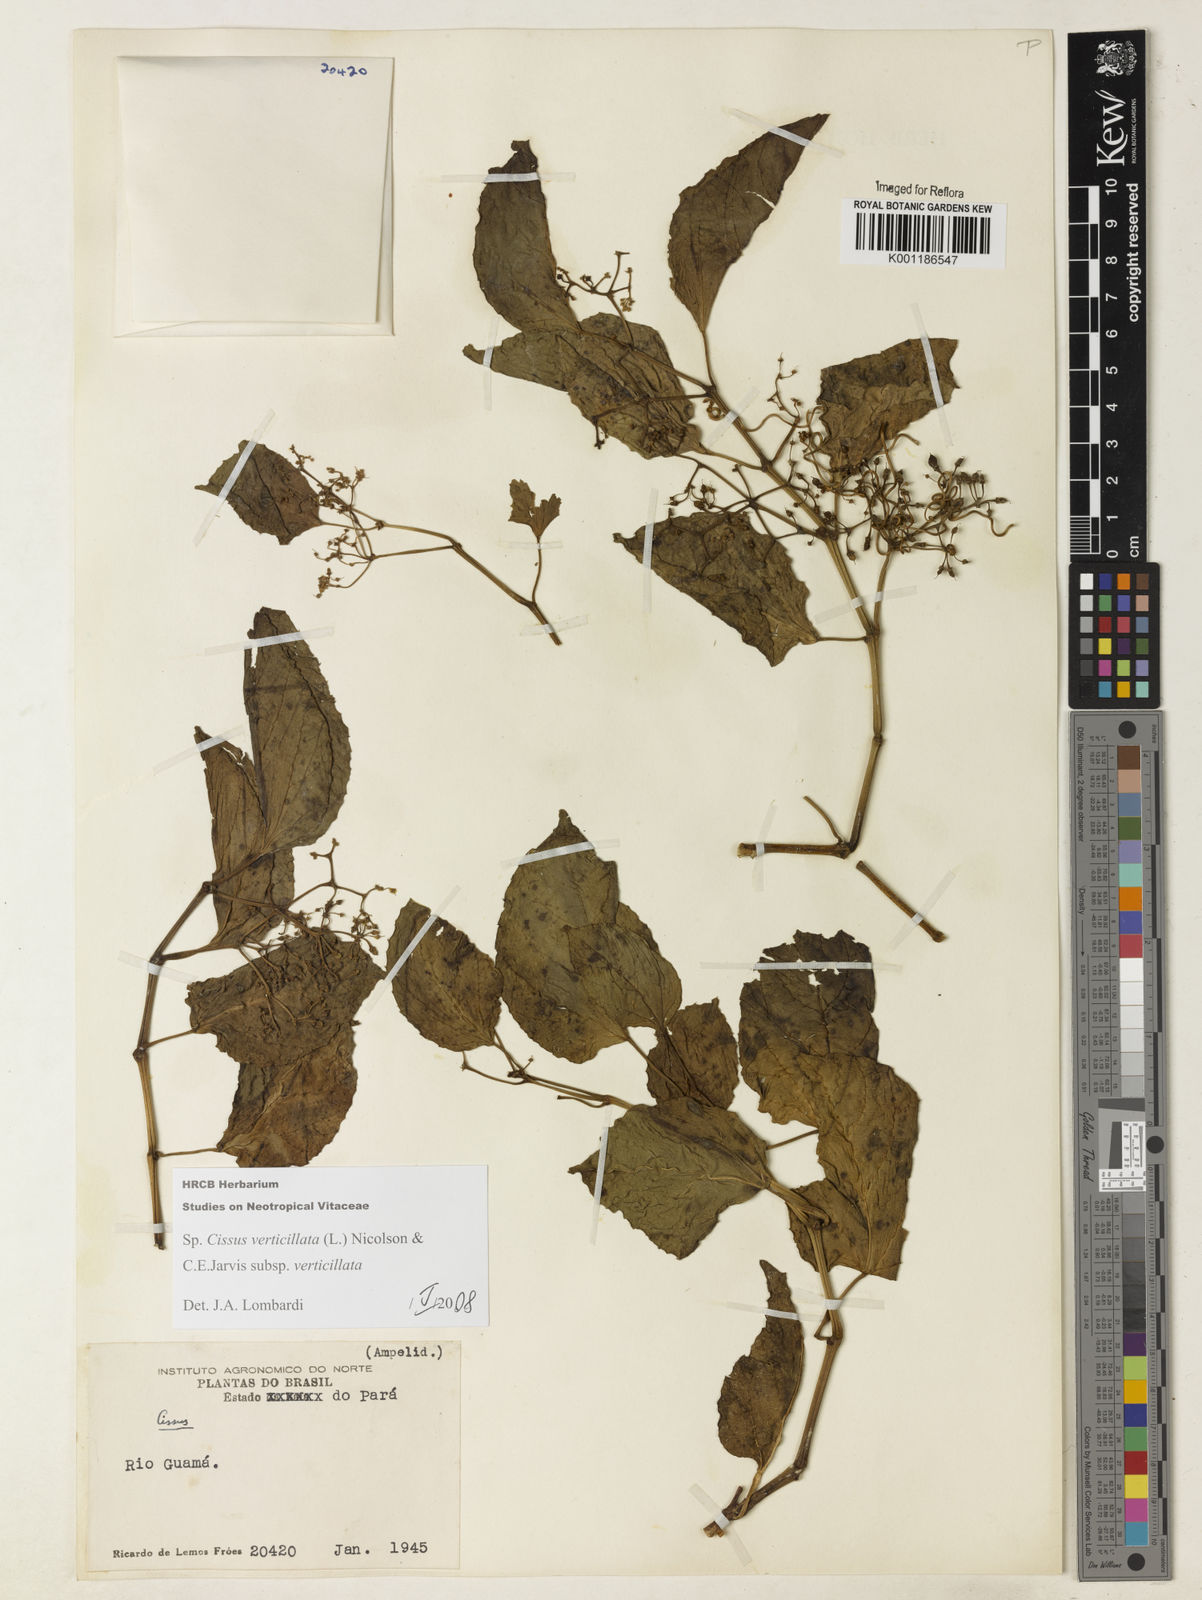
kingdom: Plantae
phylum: Tracheophyta
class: Magnoliopsida
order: Vitales
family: Vitaceae
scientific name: Vitaceae
